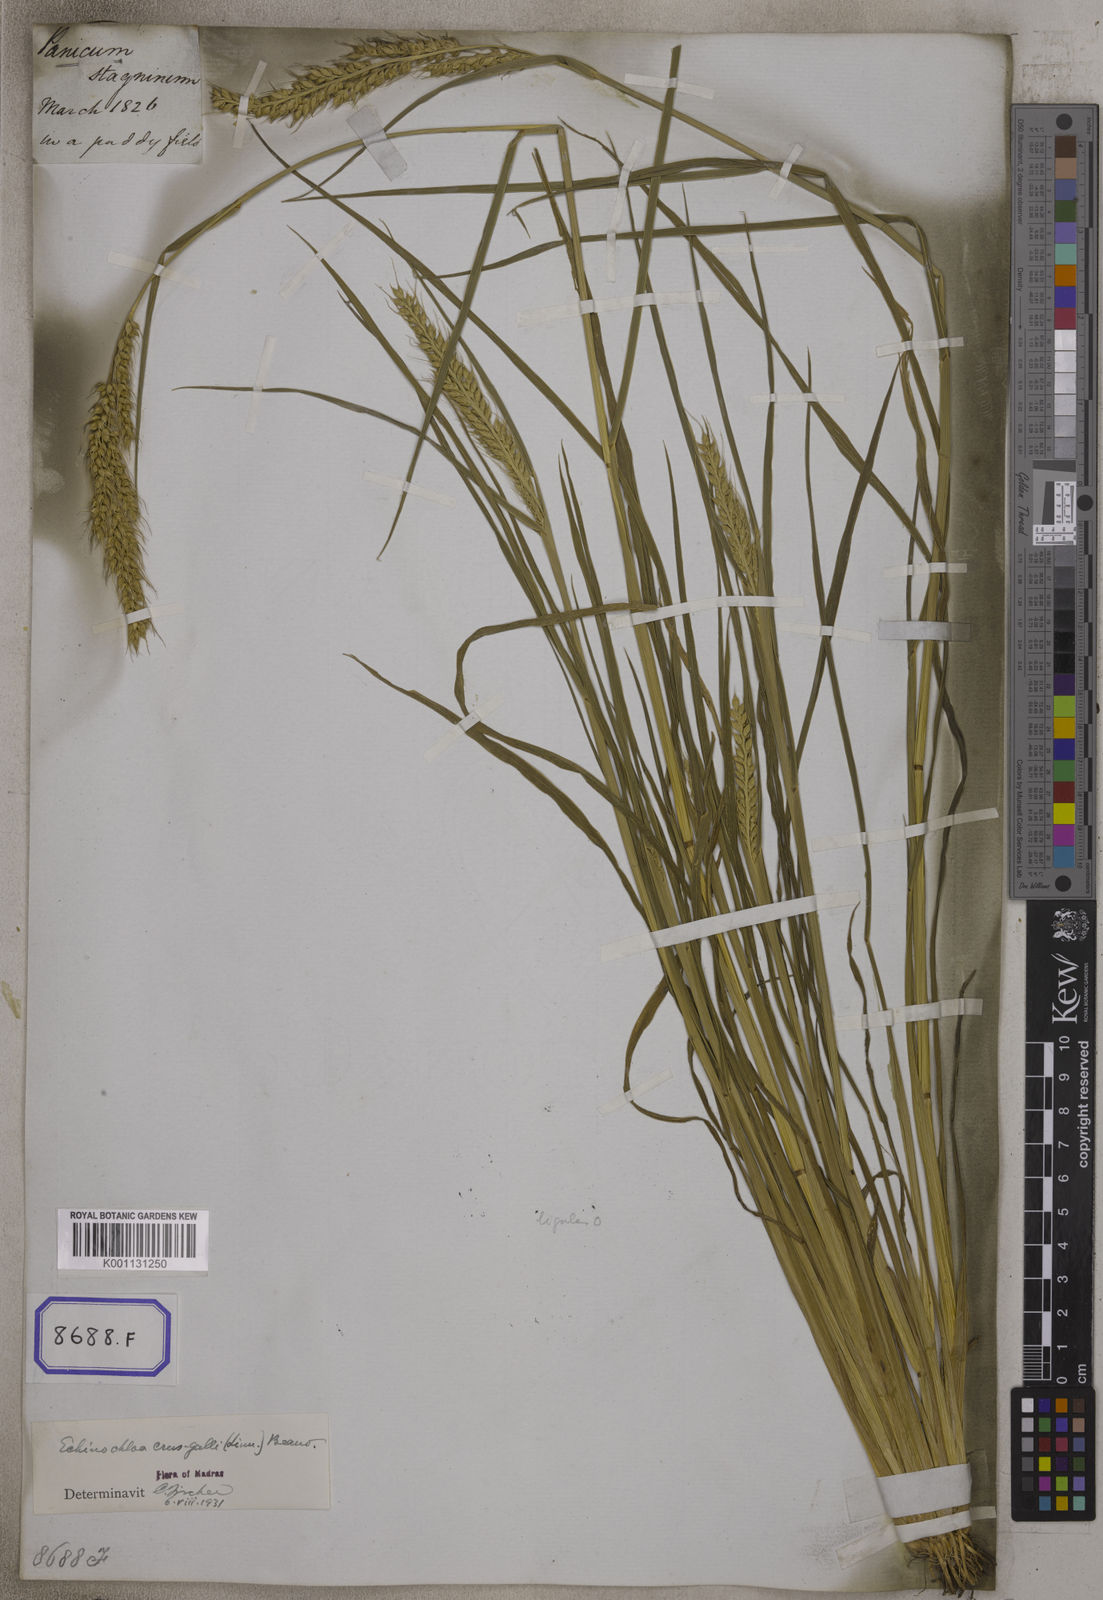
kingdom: Plantae
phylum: Tracheophyta
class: Liliopsida
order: Poales
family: Poaceae
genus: Echinochloa
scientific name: Echinochloa stagnina
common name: Burgu grass
